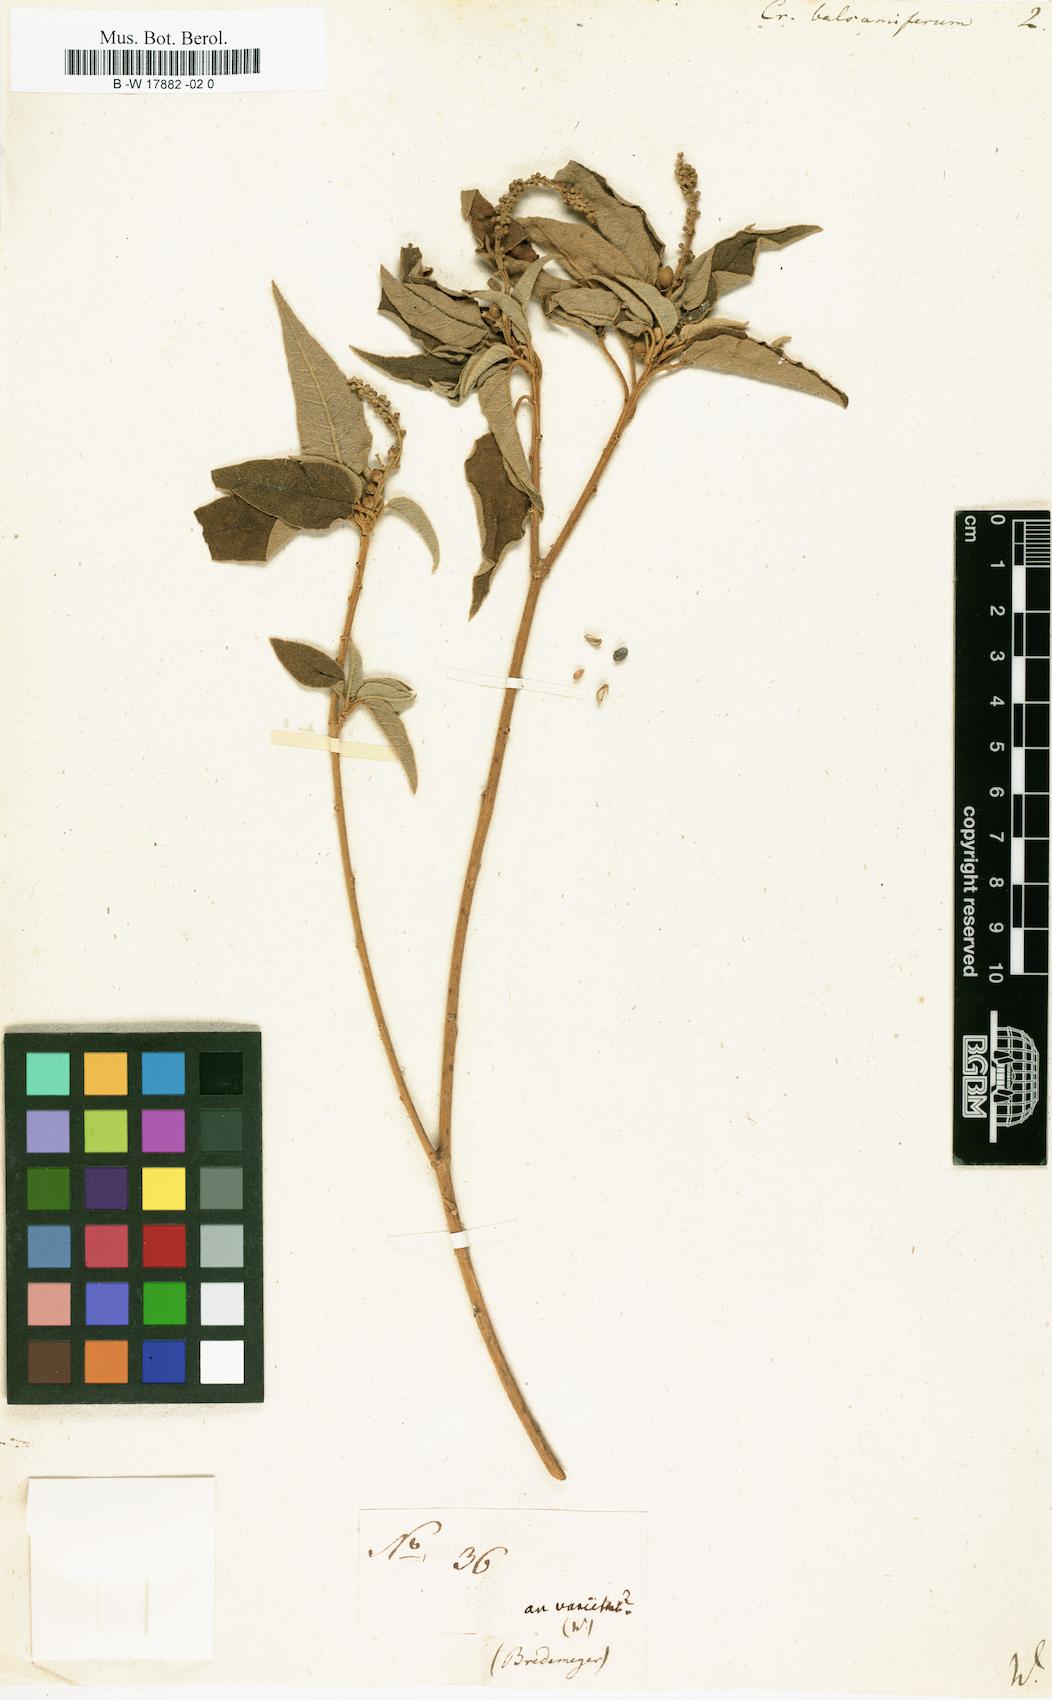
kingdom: Plantae
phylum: Tracheophyta
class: Magnoliopsida
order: Malpighiales
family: Euphorbiaceae
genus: Croton
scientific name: Croton flavens
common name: Yellow balsam
